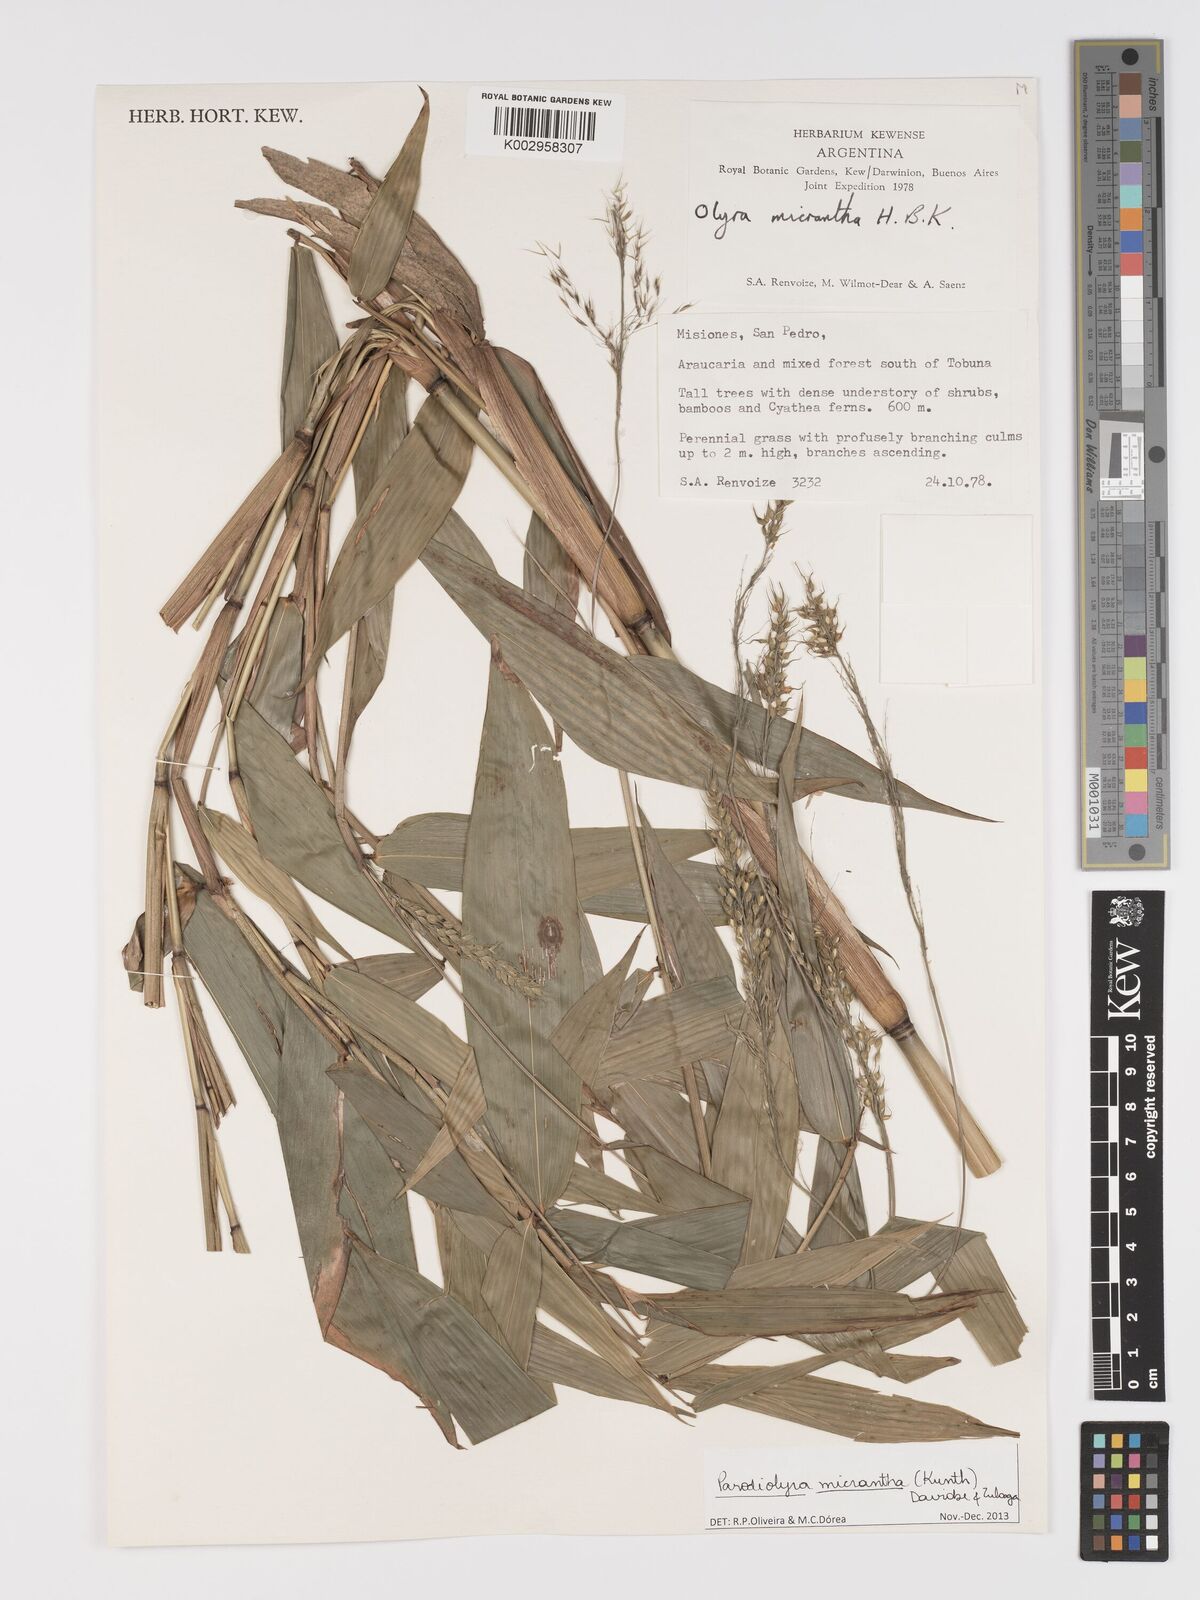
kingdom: Plantae
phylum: Tracheophyta
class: Liliopsida
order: Poales
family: Poaceae
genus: Taquara
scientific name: Taquara micrantha
